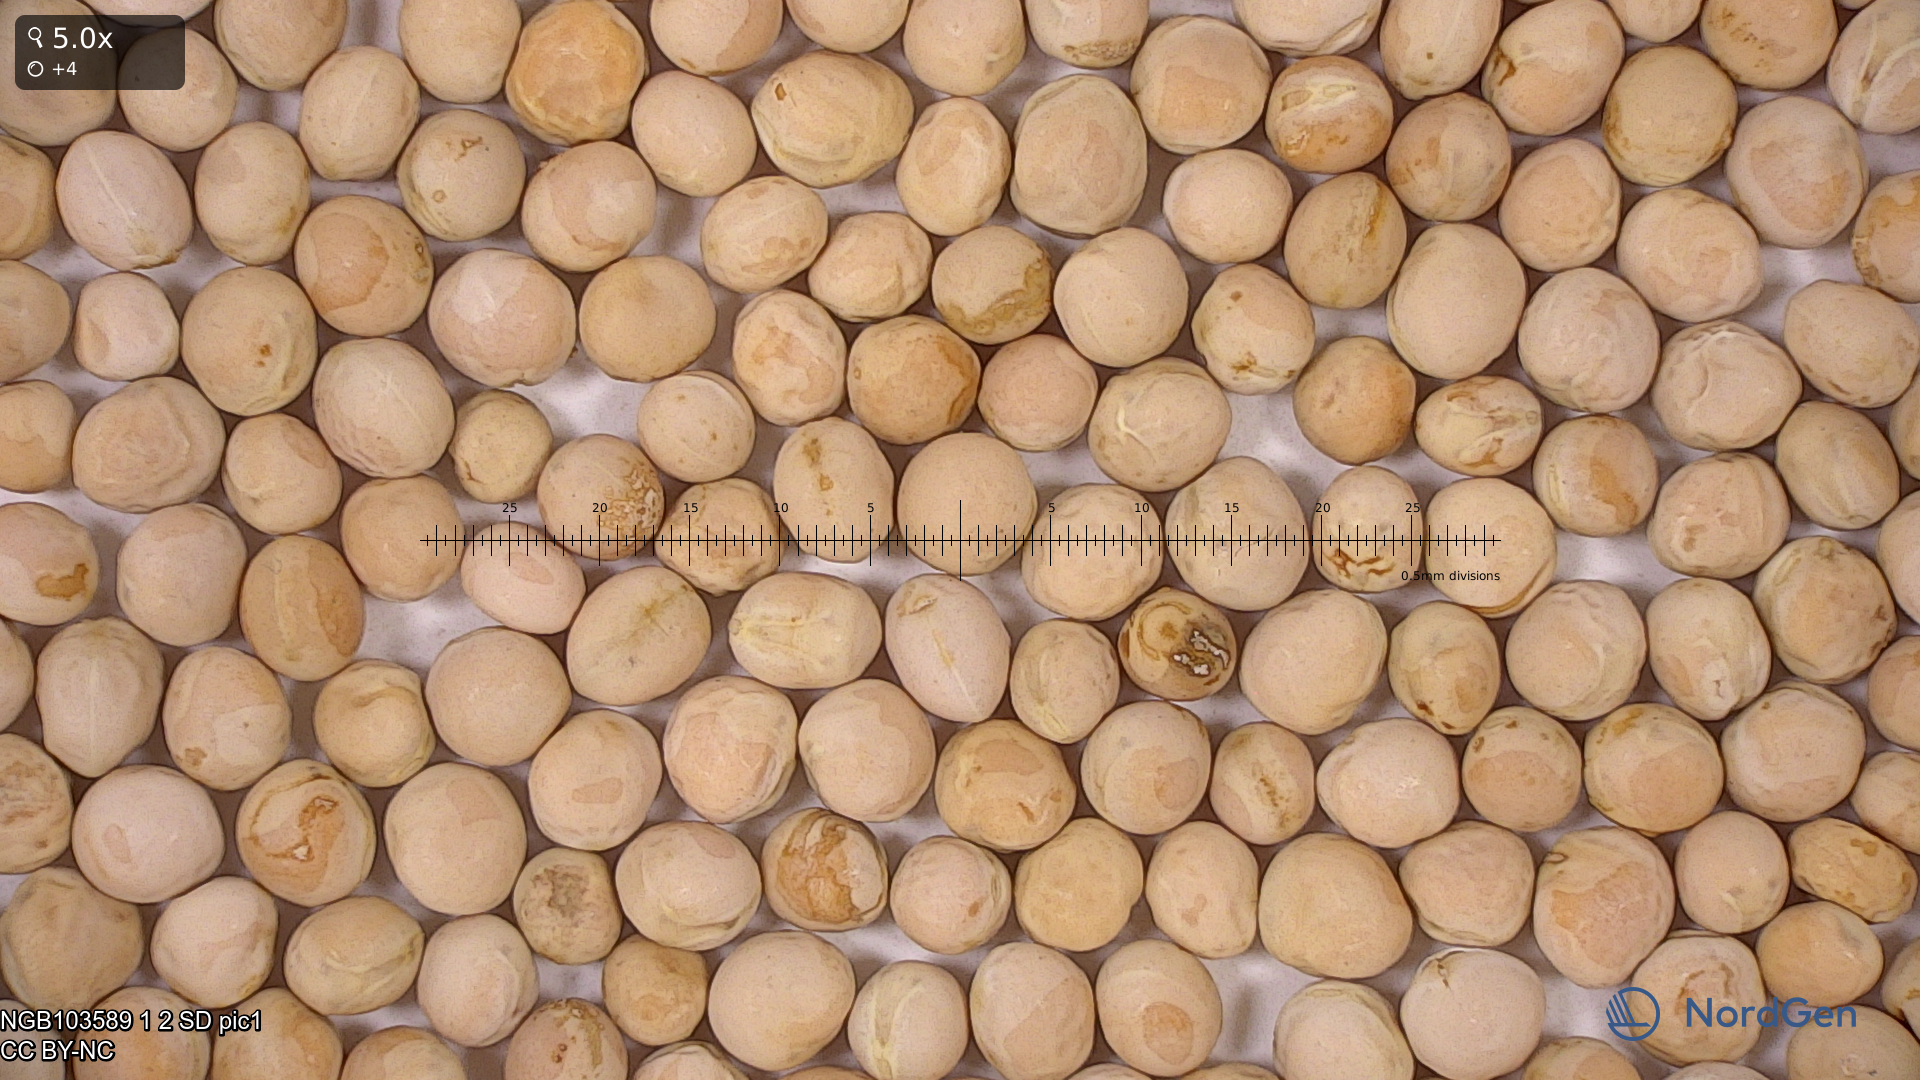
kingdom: Plantae
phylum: Tracheophyta
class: Magnoliopsida
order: Fabales
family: Fabaceae
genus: Lathyrus
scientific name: Lathyrus oleraceus
